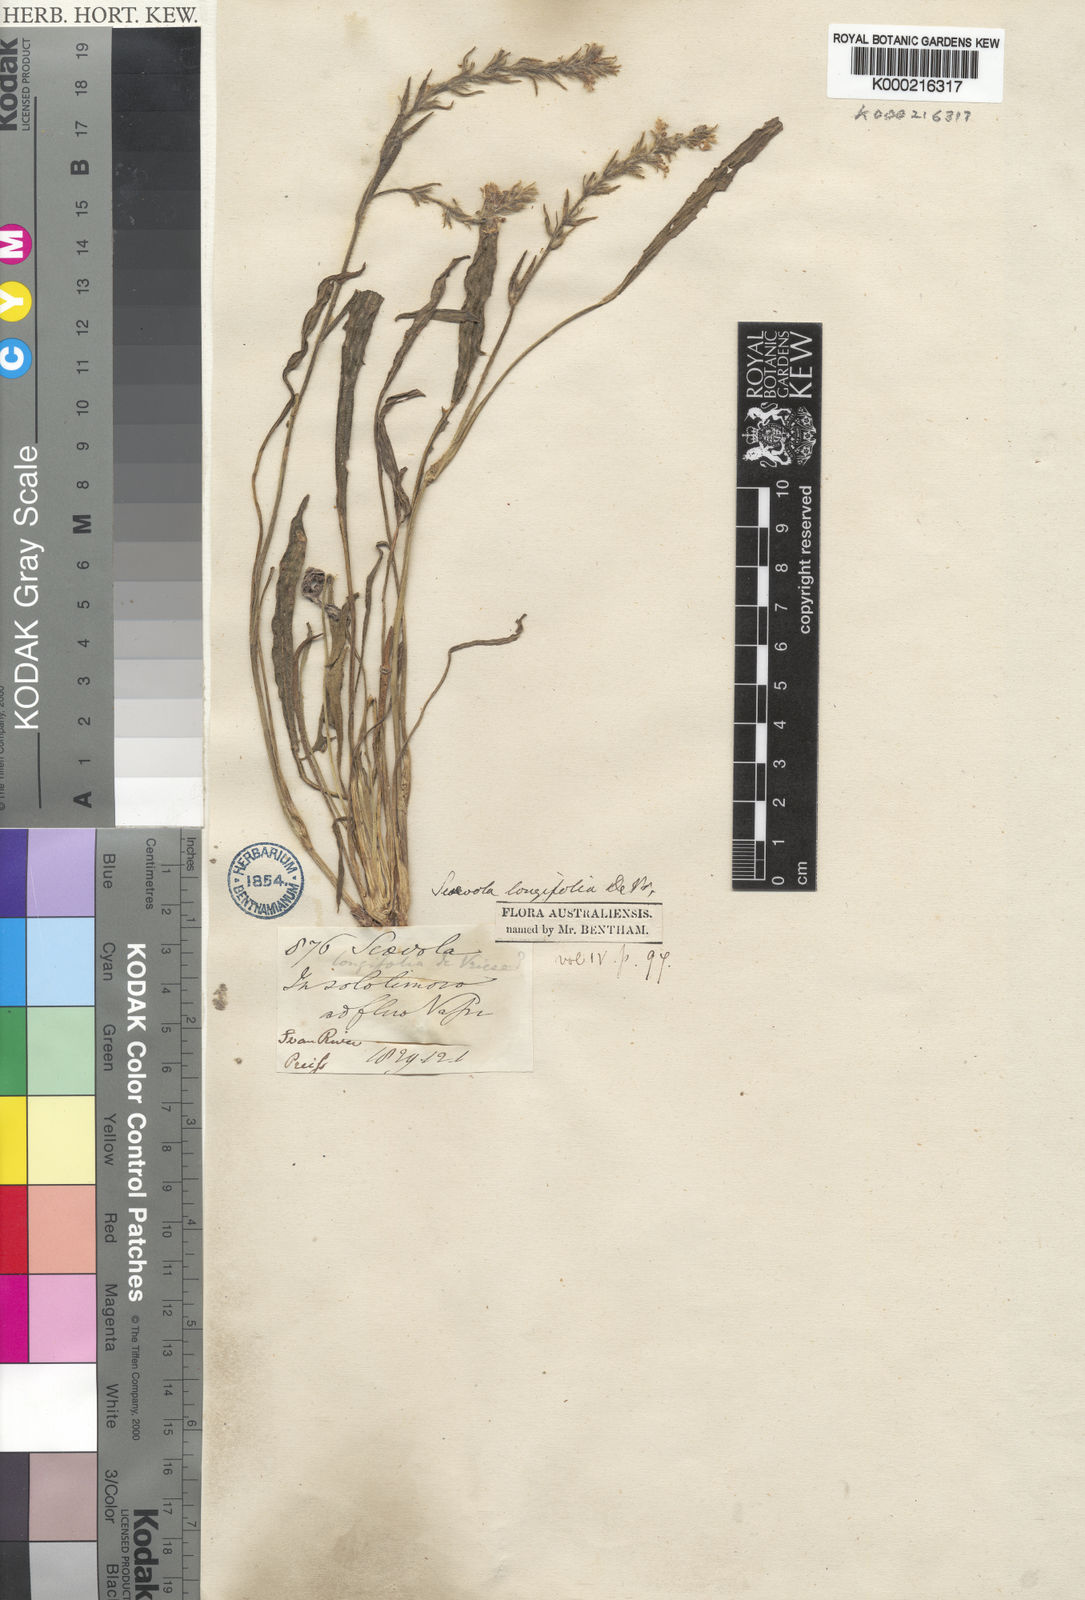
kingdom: Plantae
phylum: Tracheophyta
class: Magnoliopsida
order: Asterales
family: Goodeniaceae
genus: Scaevola
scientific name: Scaevola lanceolata
